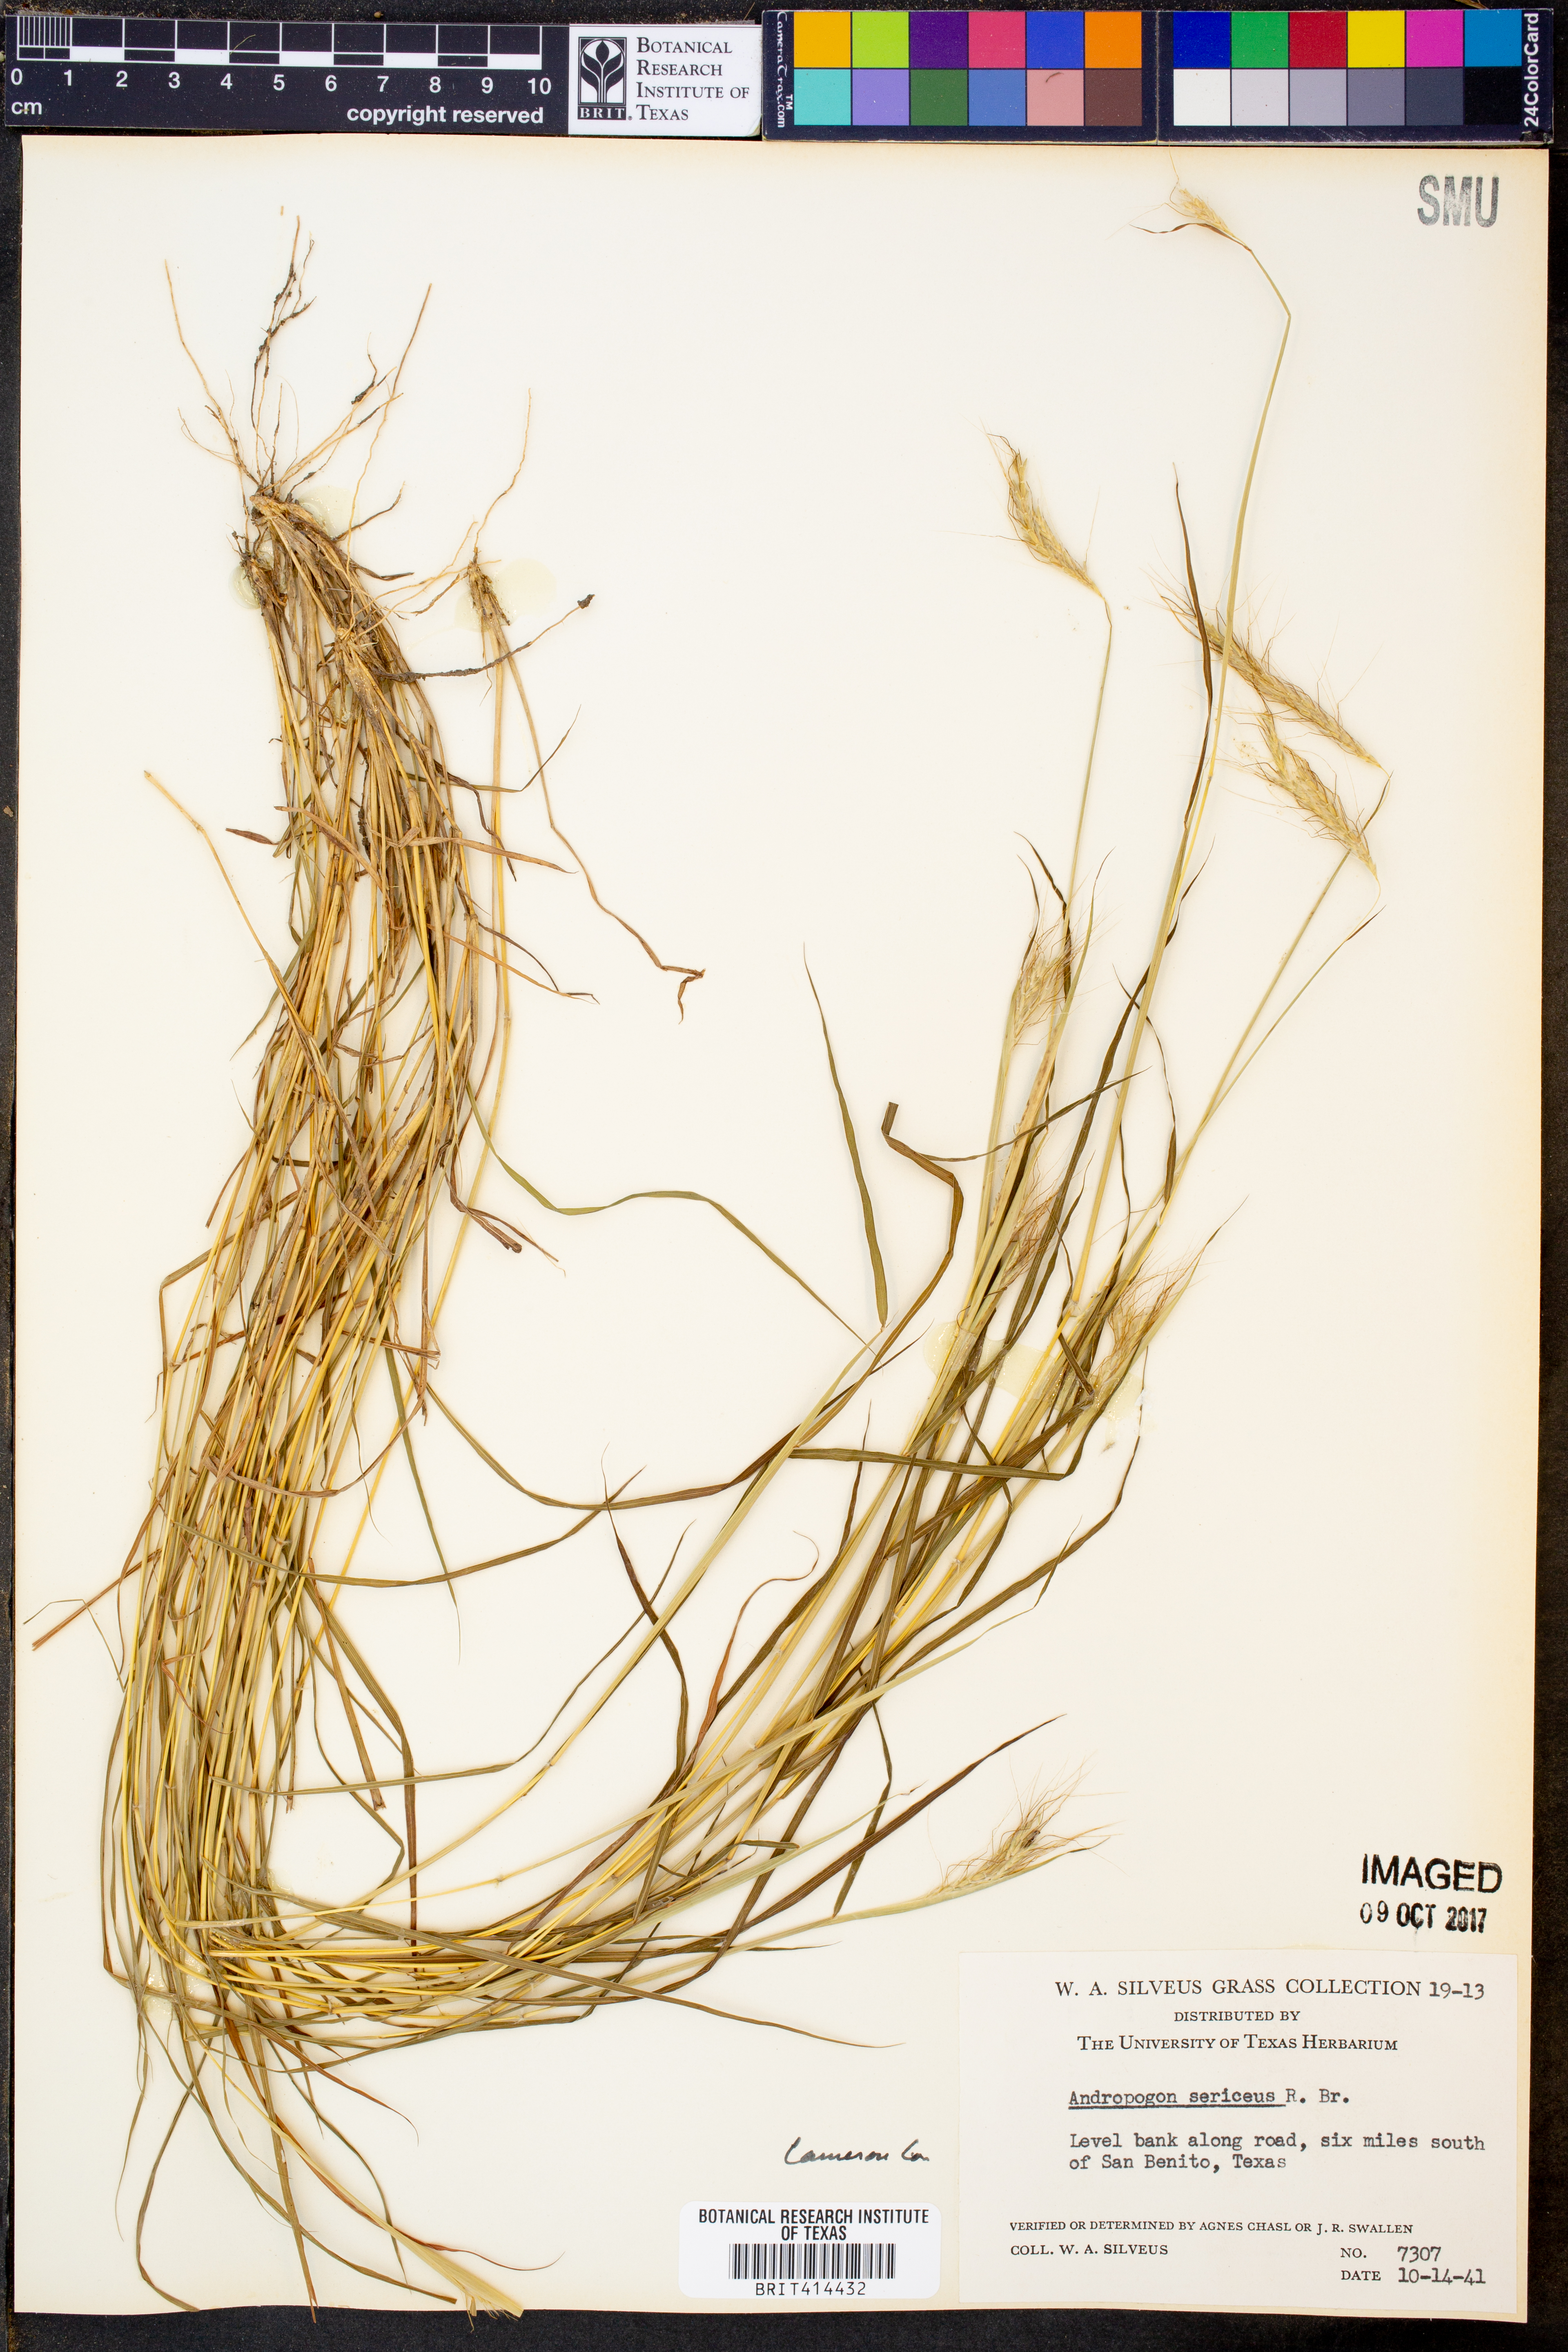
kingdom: Plantae
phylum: Tracheophyta
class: Liliopsida
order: Poales
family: Poaceae
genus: Dichanthium
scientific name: Dichanthium sericeum
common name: Silky bluestem
